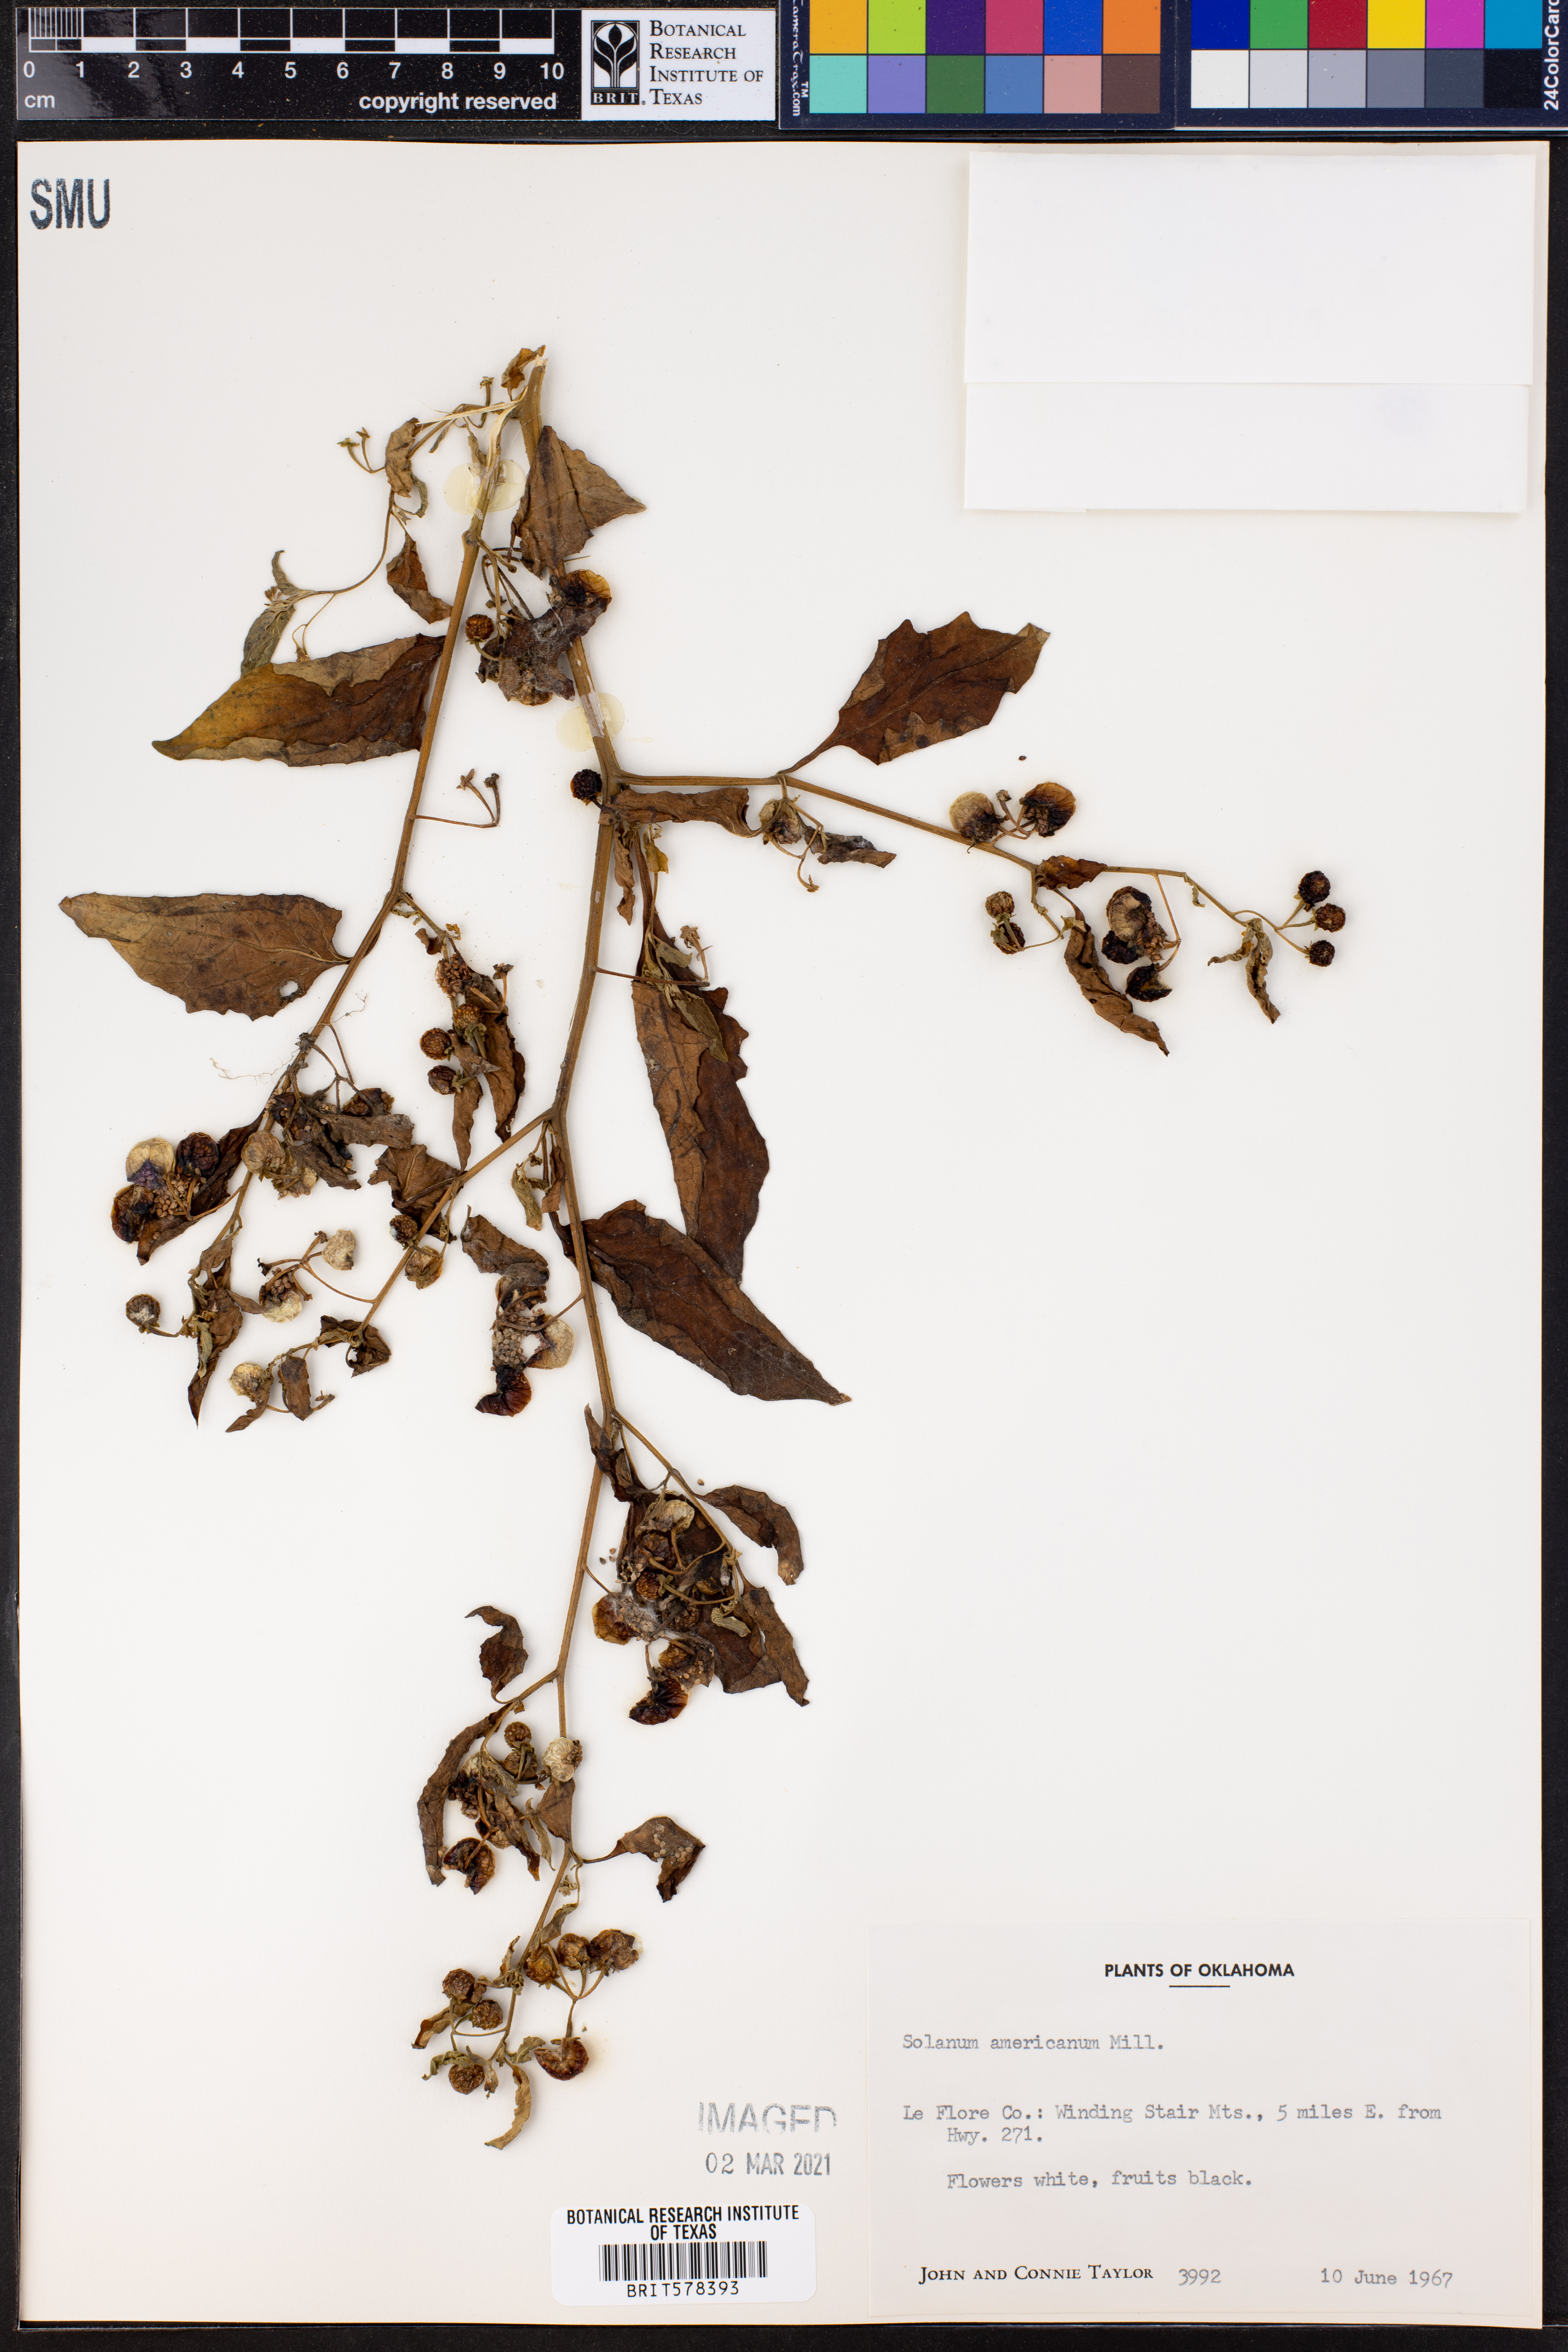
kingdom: Plantae
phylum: Tracheophyta
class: Magnoliopsida
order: Solanales
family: Solanaceae
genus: Solanum
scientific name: Solanum americanum
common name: American black nightshade
